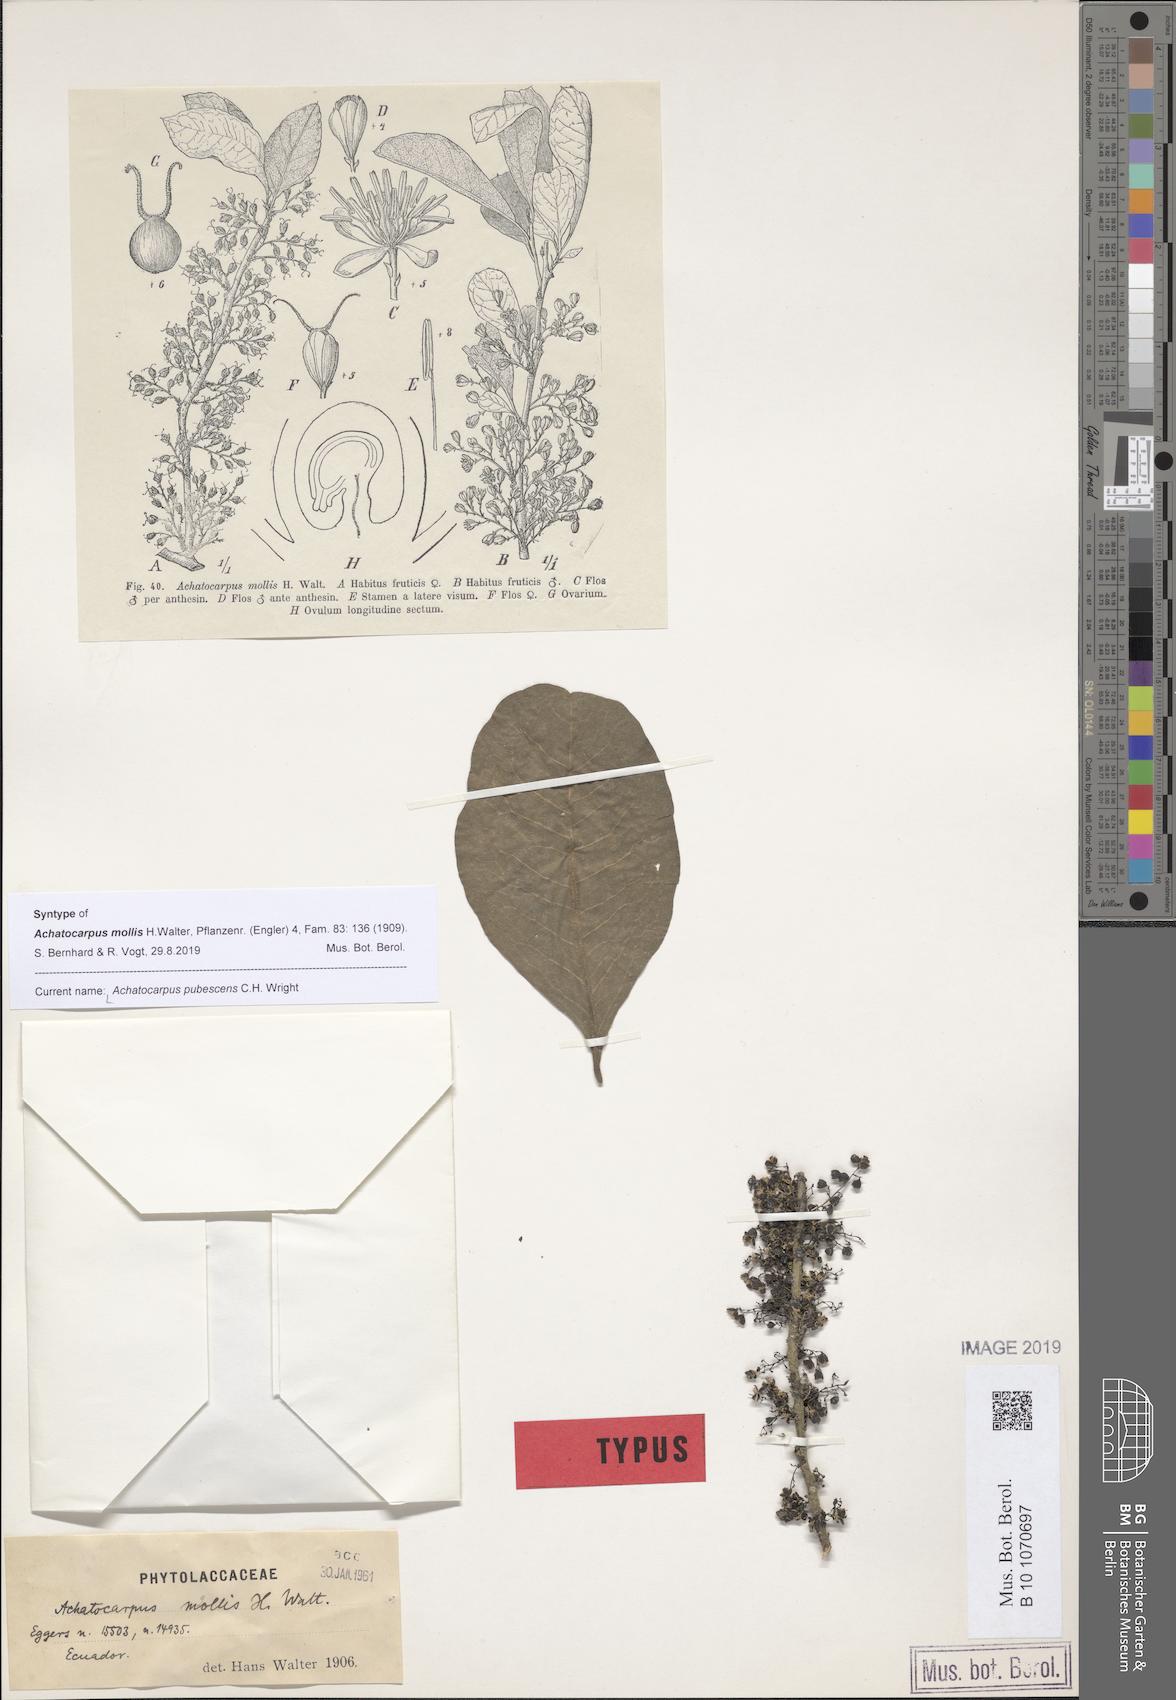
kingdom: Plantae
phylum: Tracheophyta
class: Magnoliopsida
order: Caryophyllales
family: Achatocarpaceae
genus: Achatocarpus
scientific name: Achatocarpus pubescens
